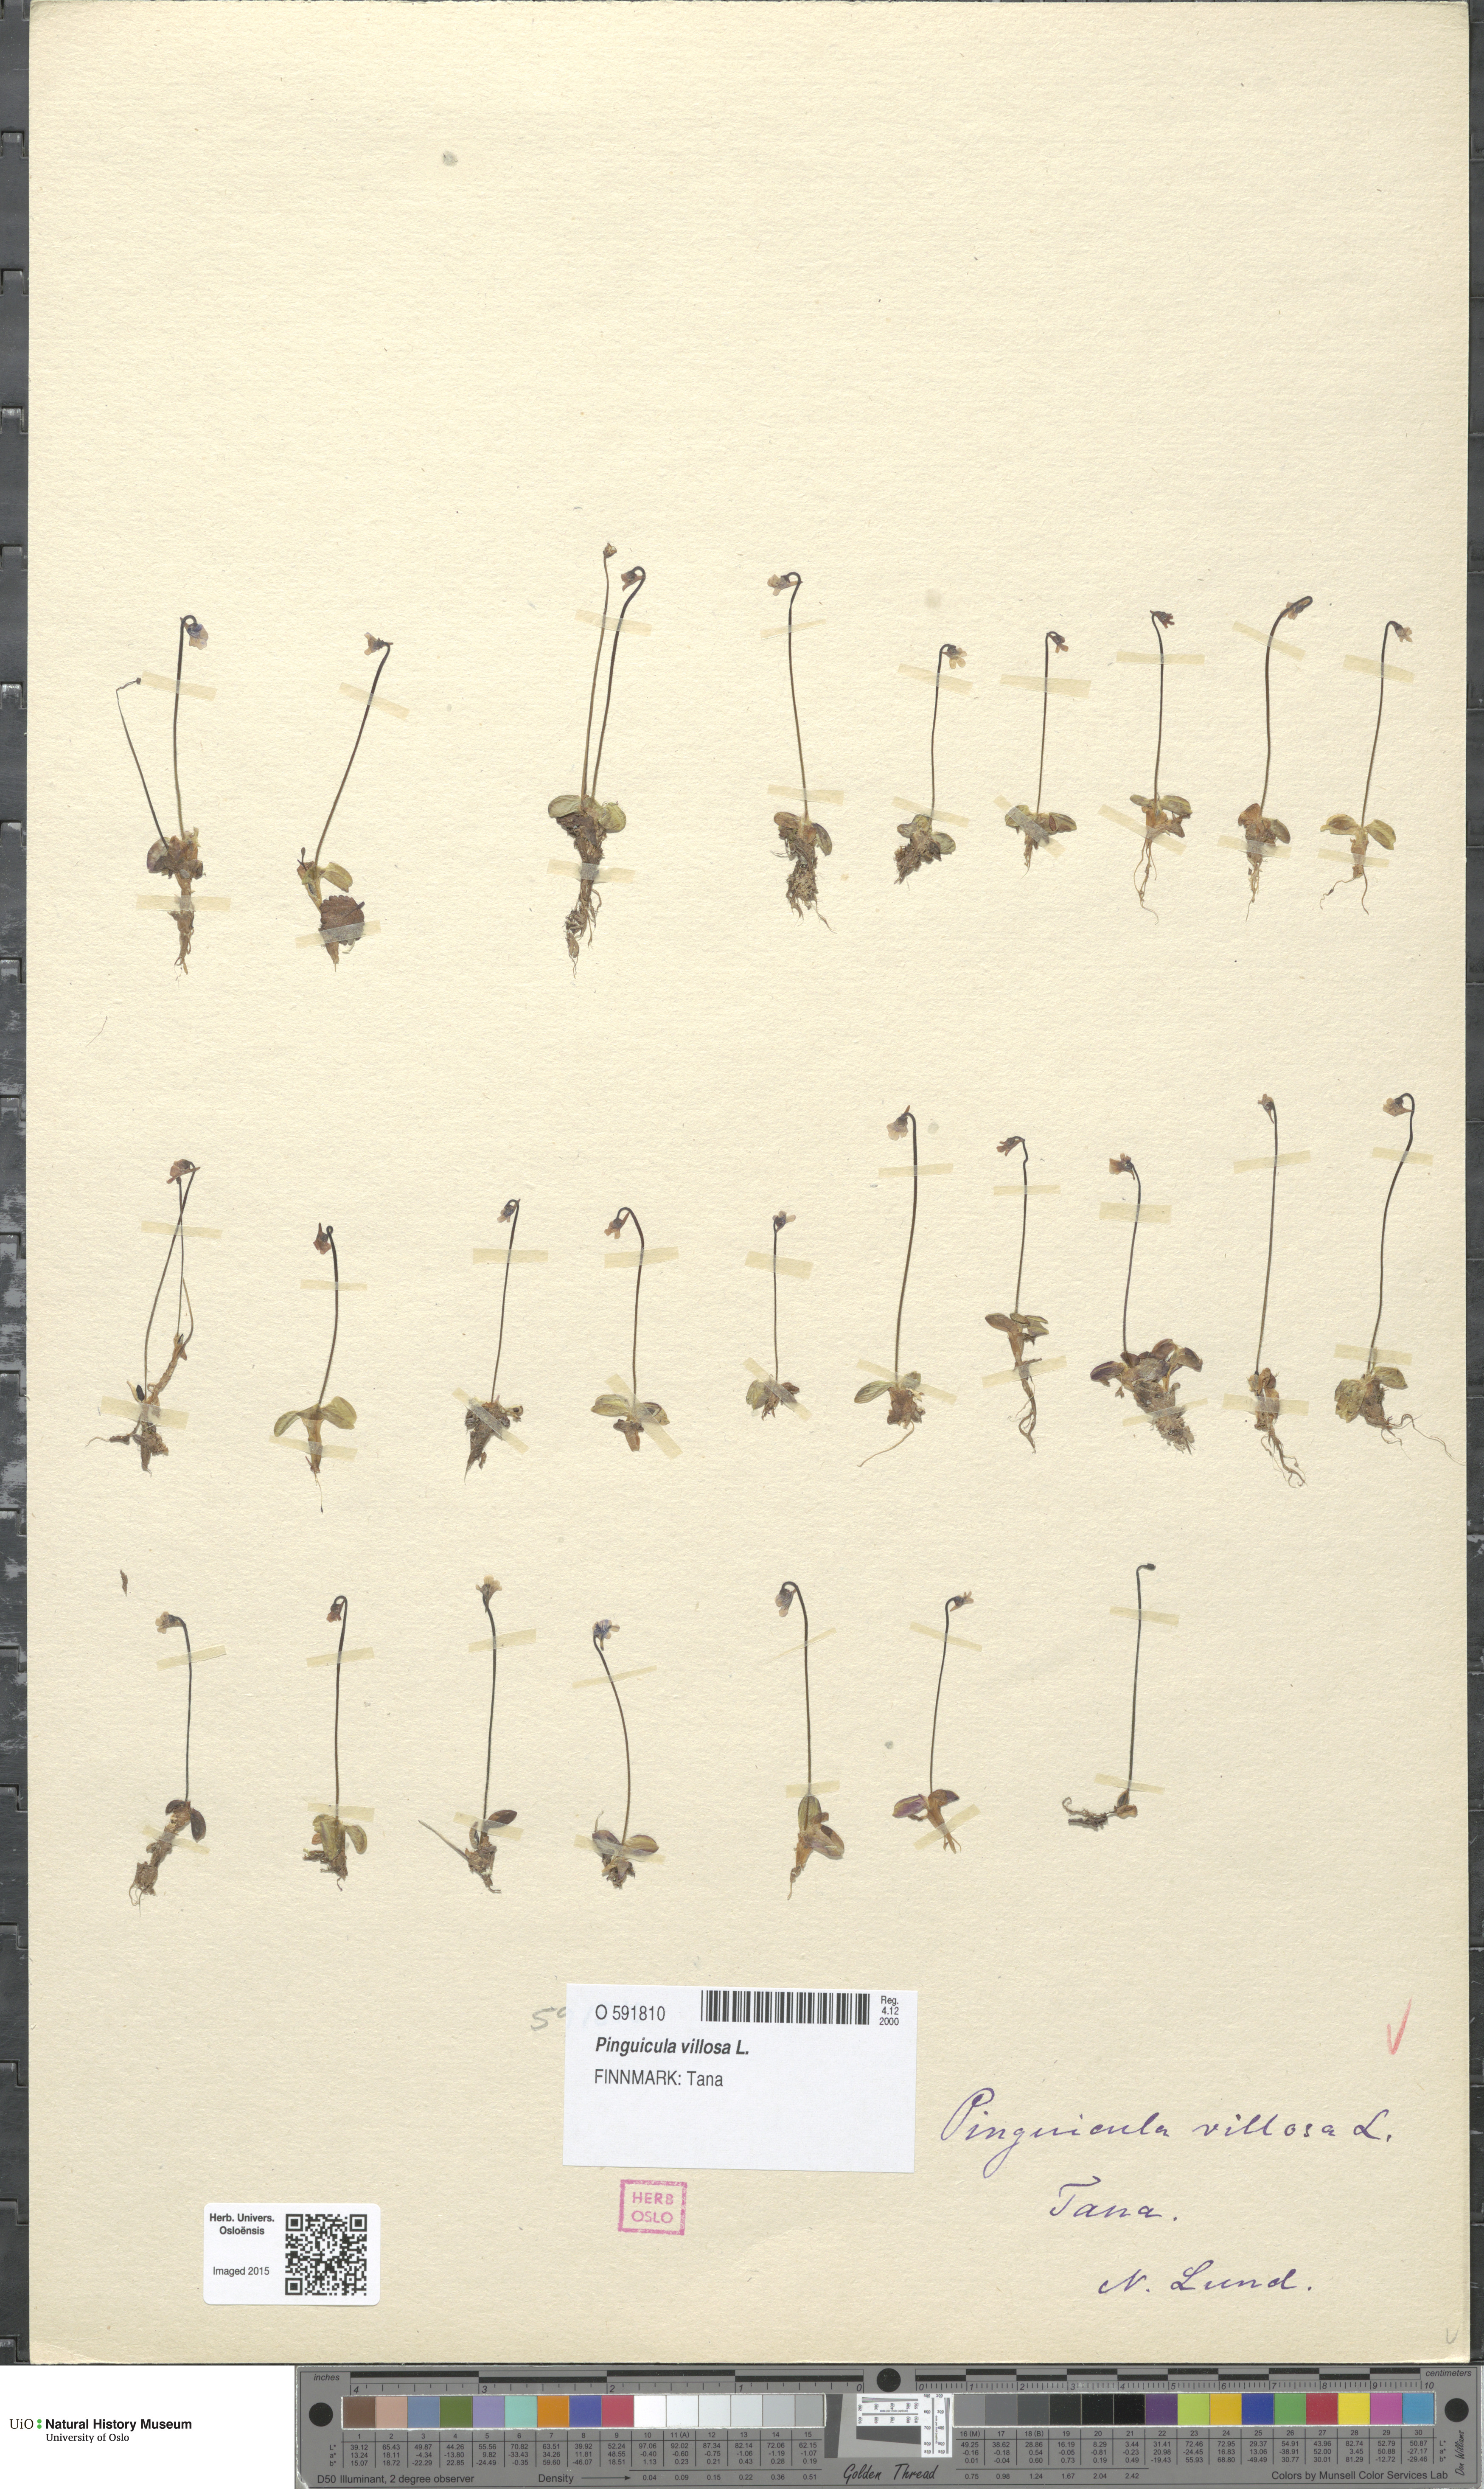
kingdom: Plantae
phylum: Tracheophyta
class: Magnoliopsida
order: Lamiales
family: Lentibulariaceae
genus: Pinguicula
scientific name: Pinguicula villosa
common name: Hairy butterwort
